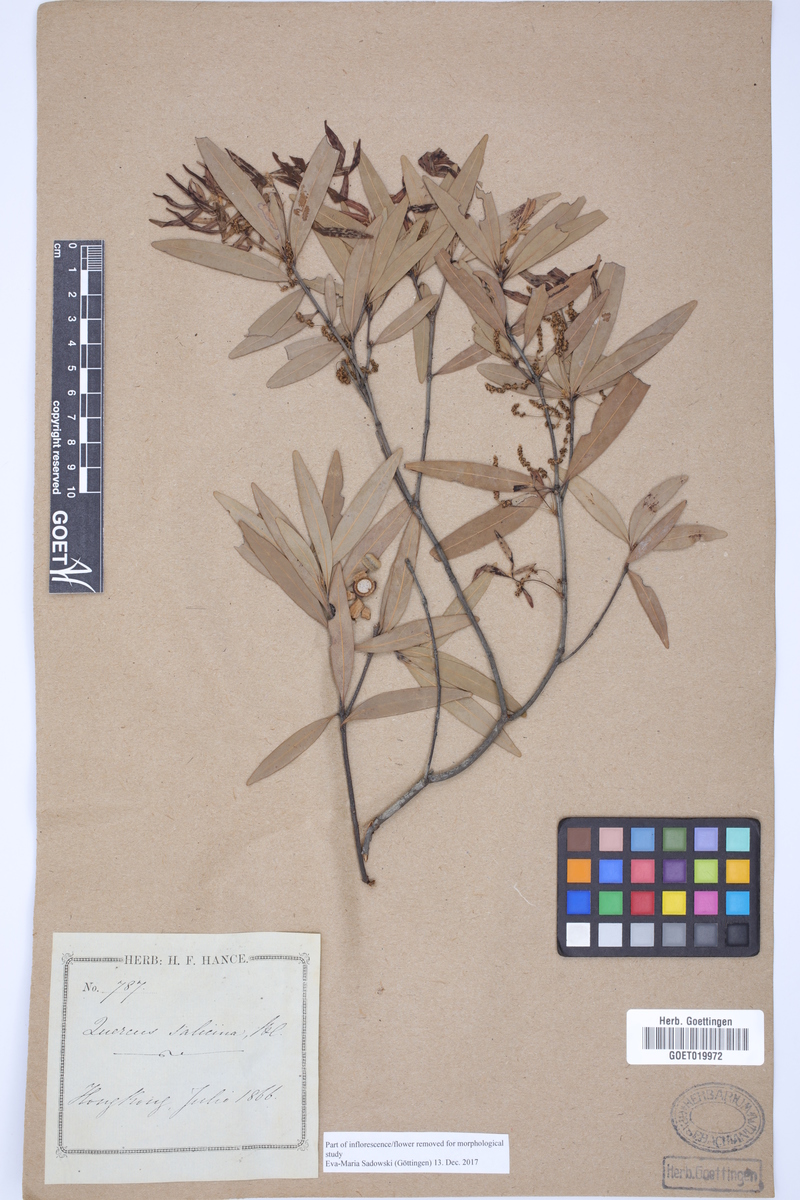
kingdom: Plantae
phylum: Tracheophyta
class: Magnoliopsida
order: Fagales
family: Fagaceae
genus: Quercus
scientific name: Quercus salicina
